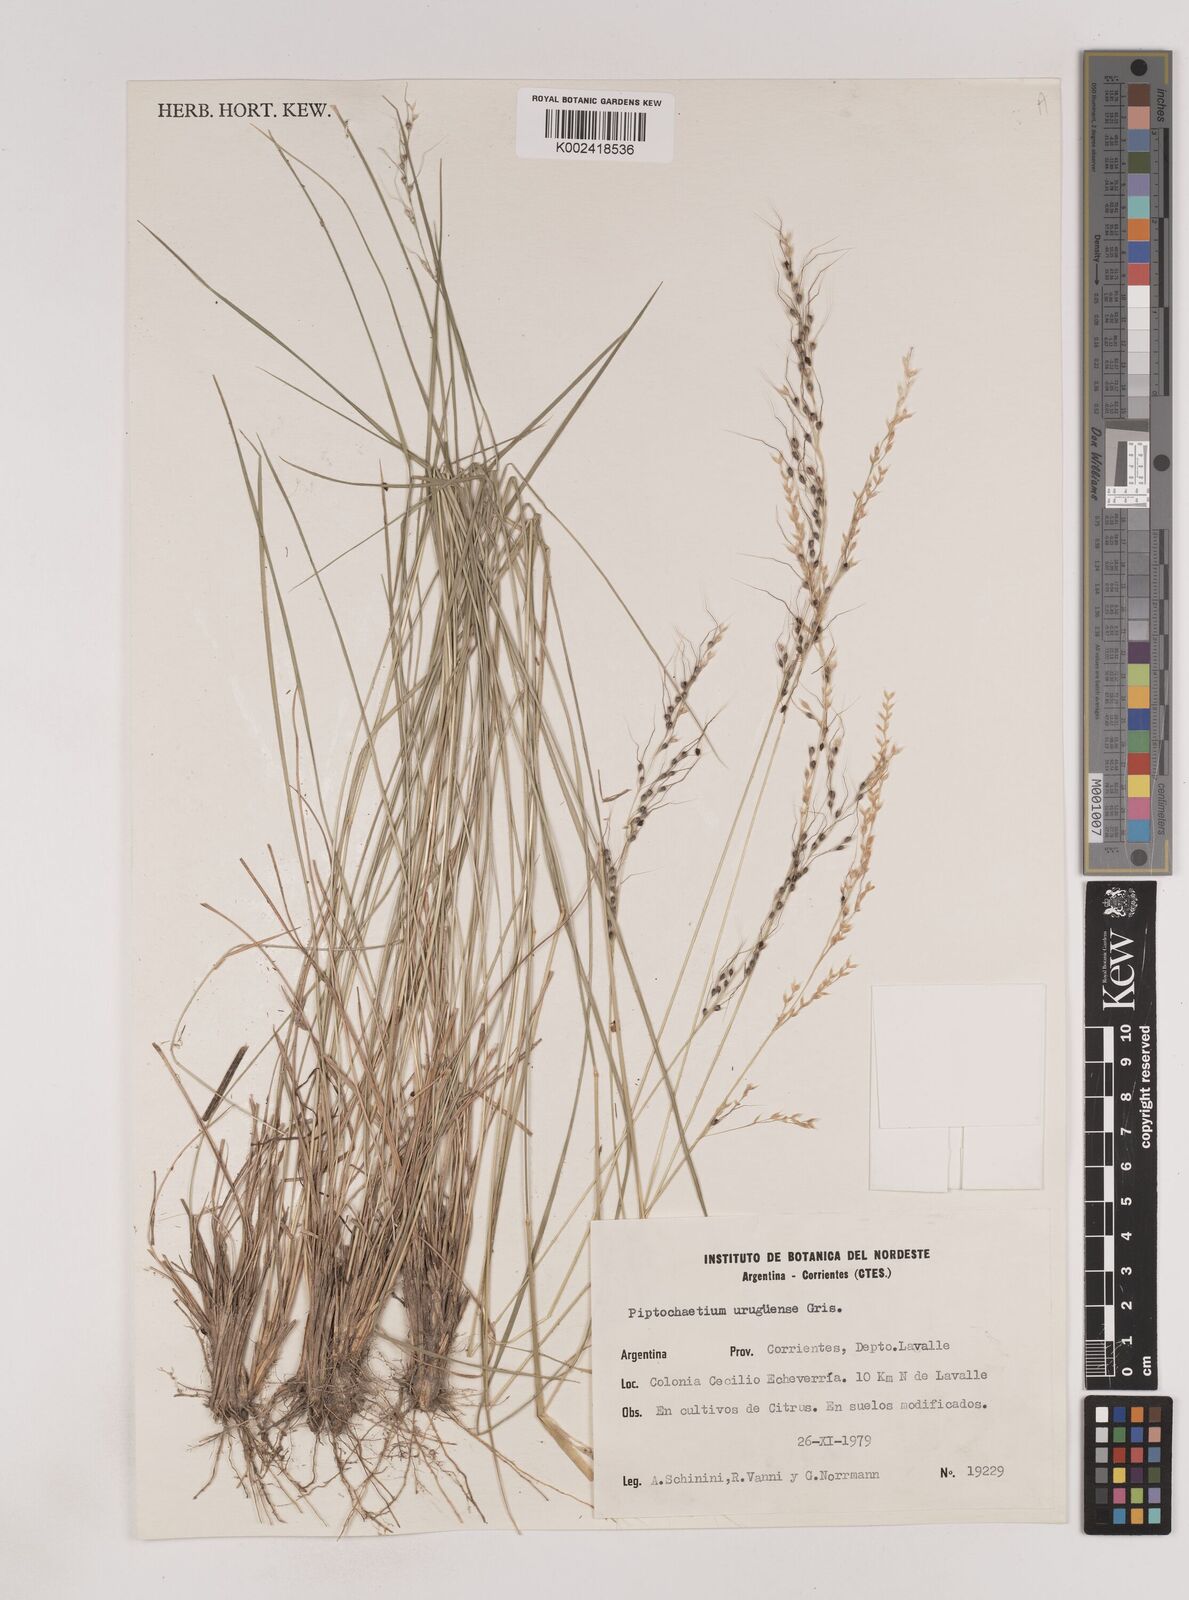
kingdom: Plantae
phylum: Tracheophyta
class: Liliopsida
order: Poales
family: Poaceae
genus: Piptochaetium
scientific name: Piptochaetium uruguense
